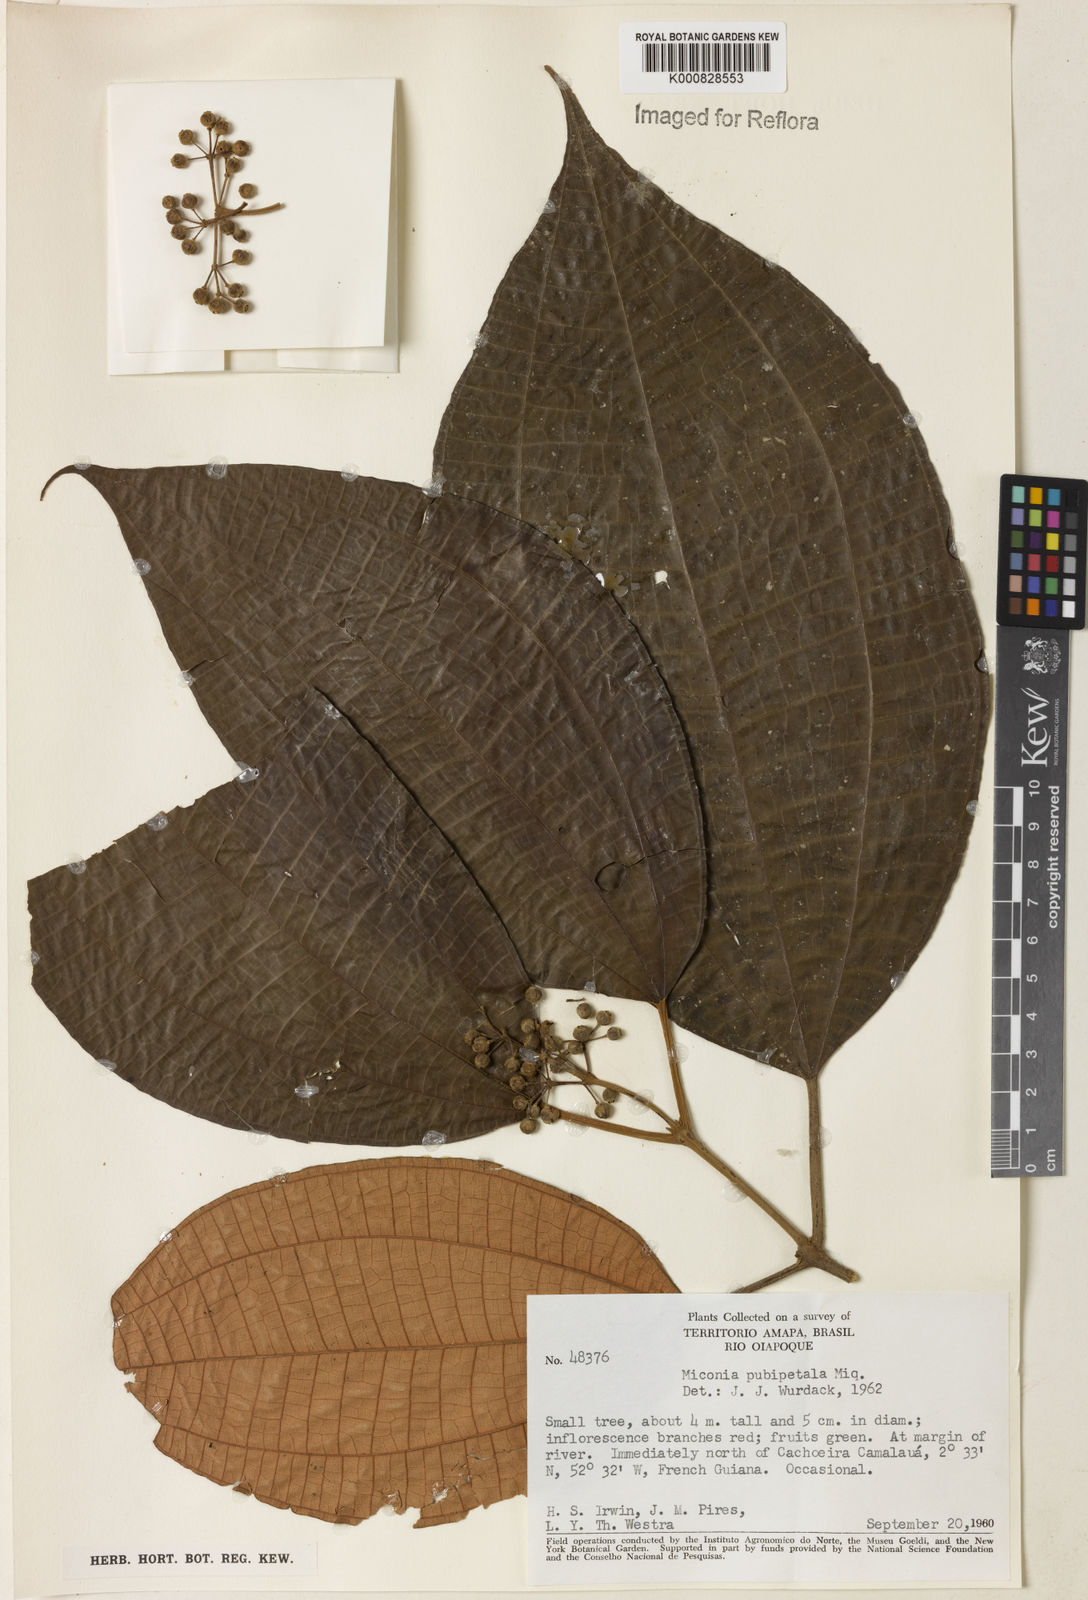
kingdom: Plantae
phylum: Tracheophyta
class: Magnoliopsida
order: Myrtales
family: Melastomataceae
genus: Miconia
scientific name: Miconia pubipetala
